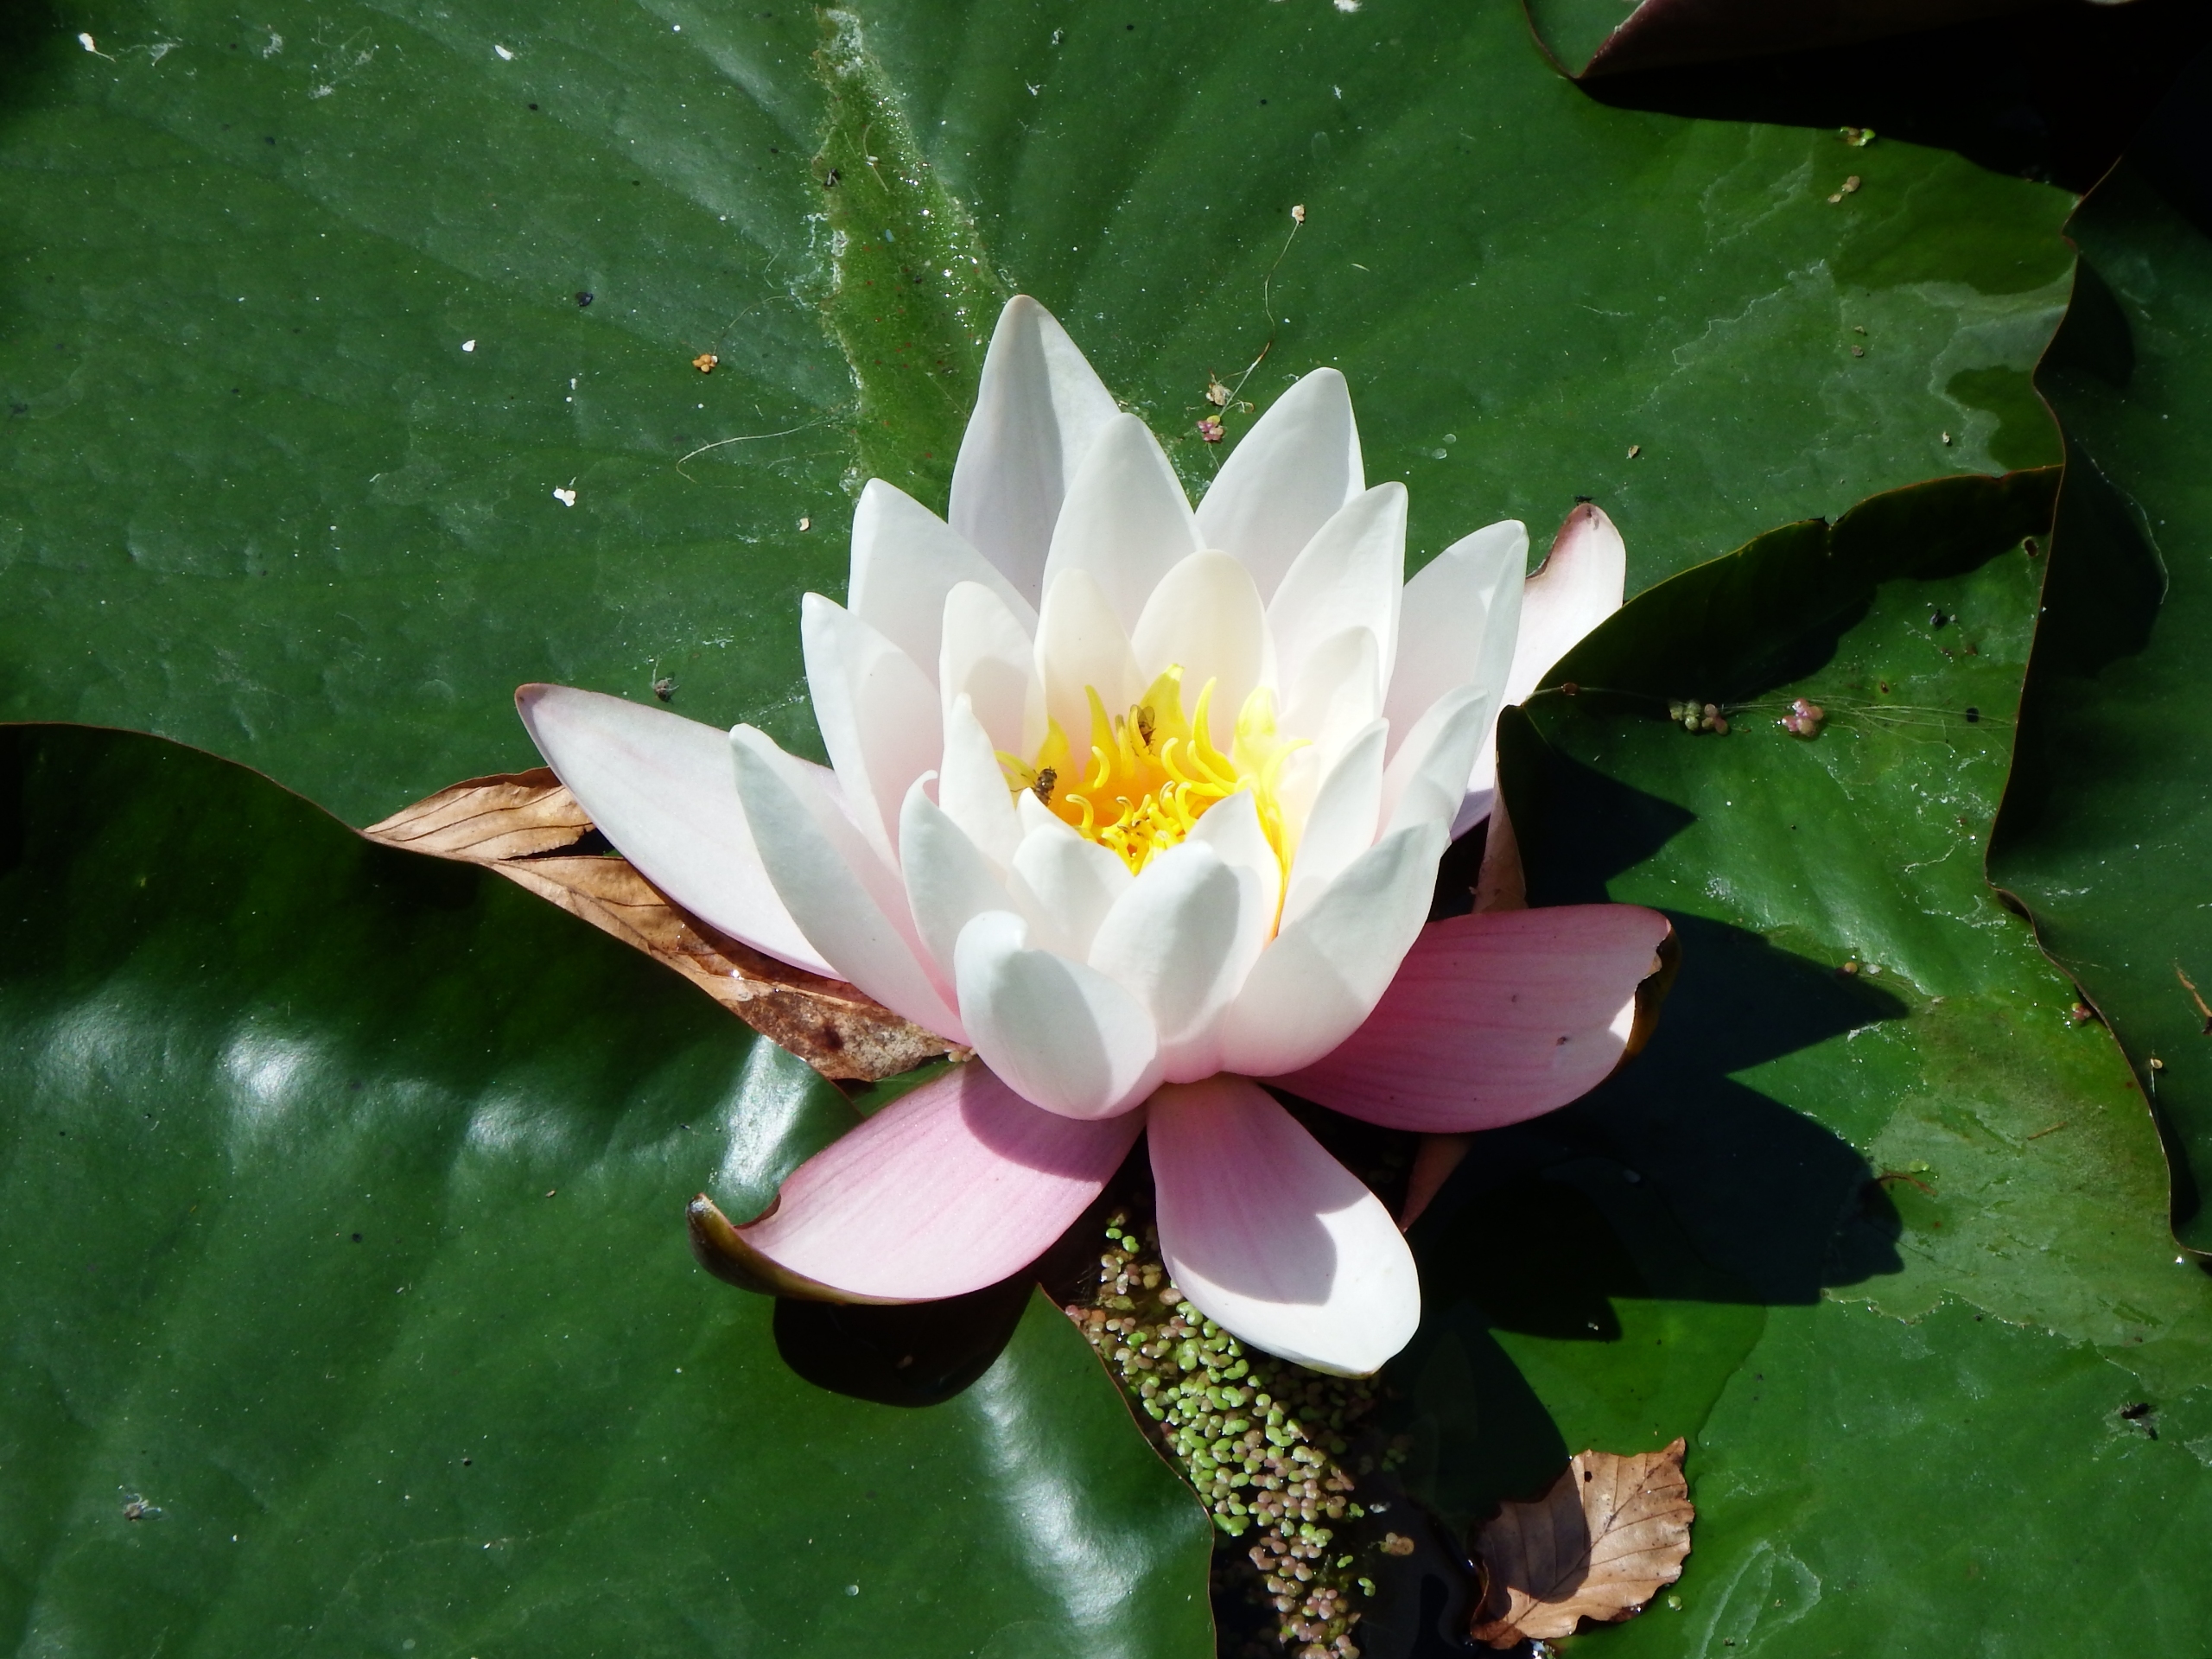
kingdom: Plantae
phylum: Tracheophyta
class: Magnoliopsida
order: Nymphaeales
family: Nymphaeaceae
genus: Nymphaea
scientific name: Nymphaea alba
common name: Hvid åkande
